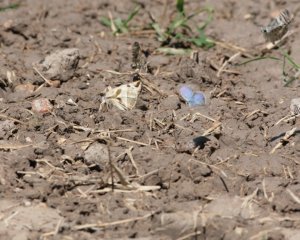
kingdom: Animalia
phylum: Arthropoda
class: Insecta
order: Lepidoptera
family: Hesperiidae
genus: Heliopetes
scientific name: Heliopetes laviana
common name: Laviana White-Skipper
